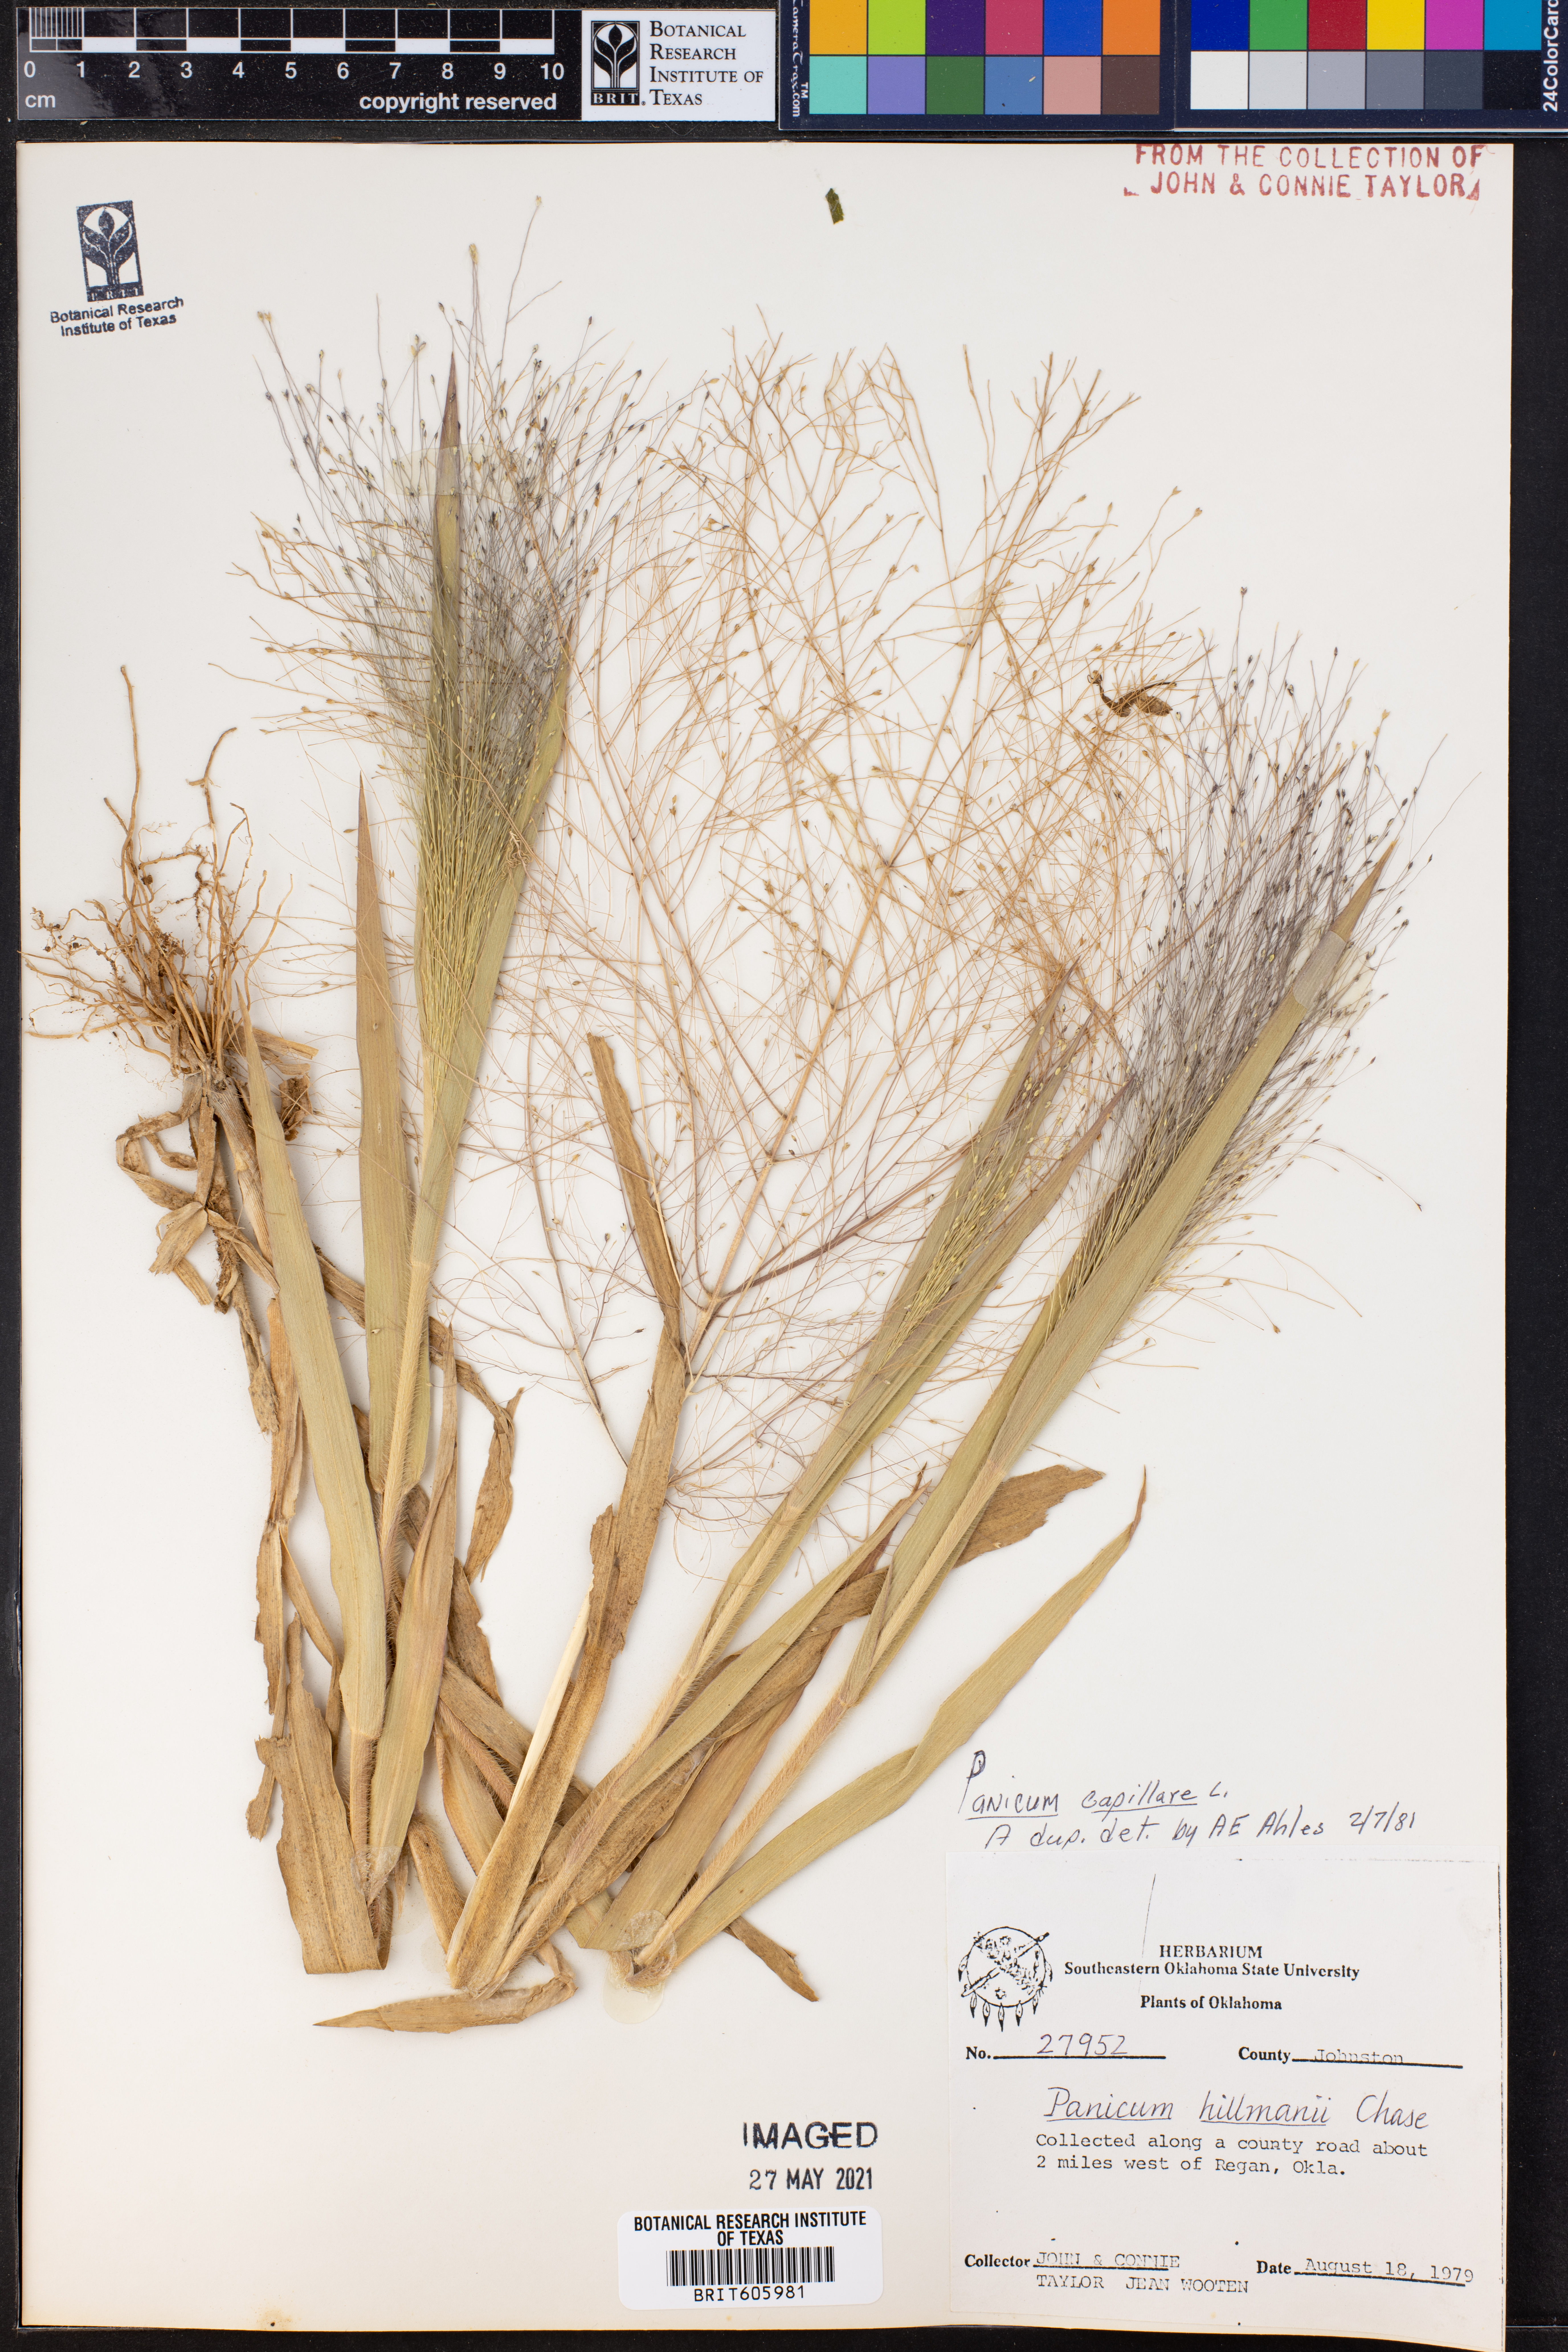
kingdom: Plantae
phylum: Tracheophyta
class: Liliopsida
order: Poales
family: Poaceae
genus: Panicum
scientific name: Panicum capillare
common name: Witch-grass
